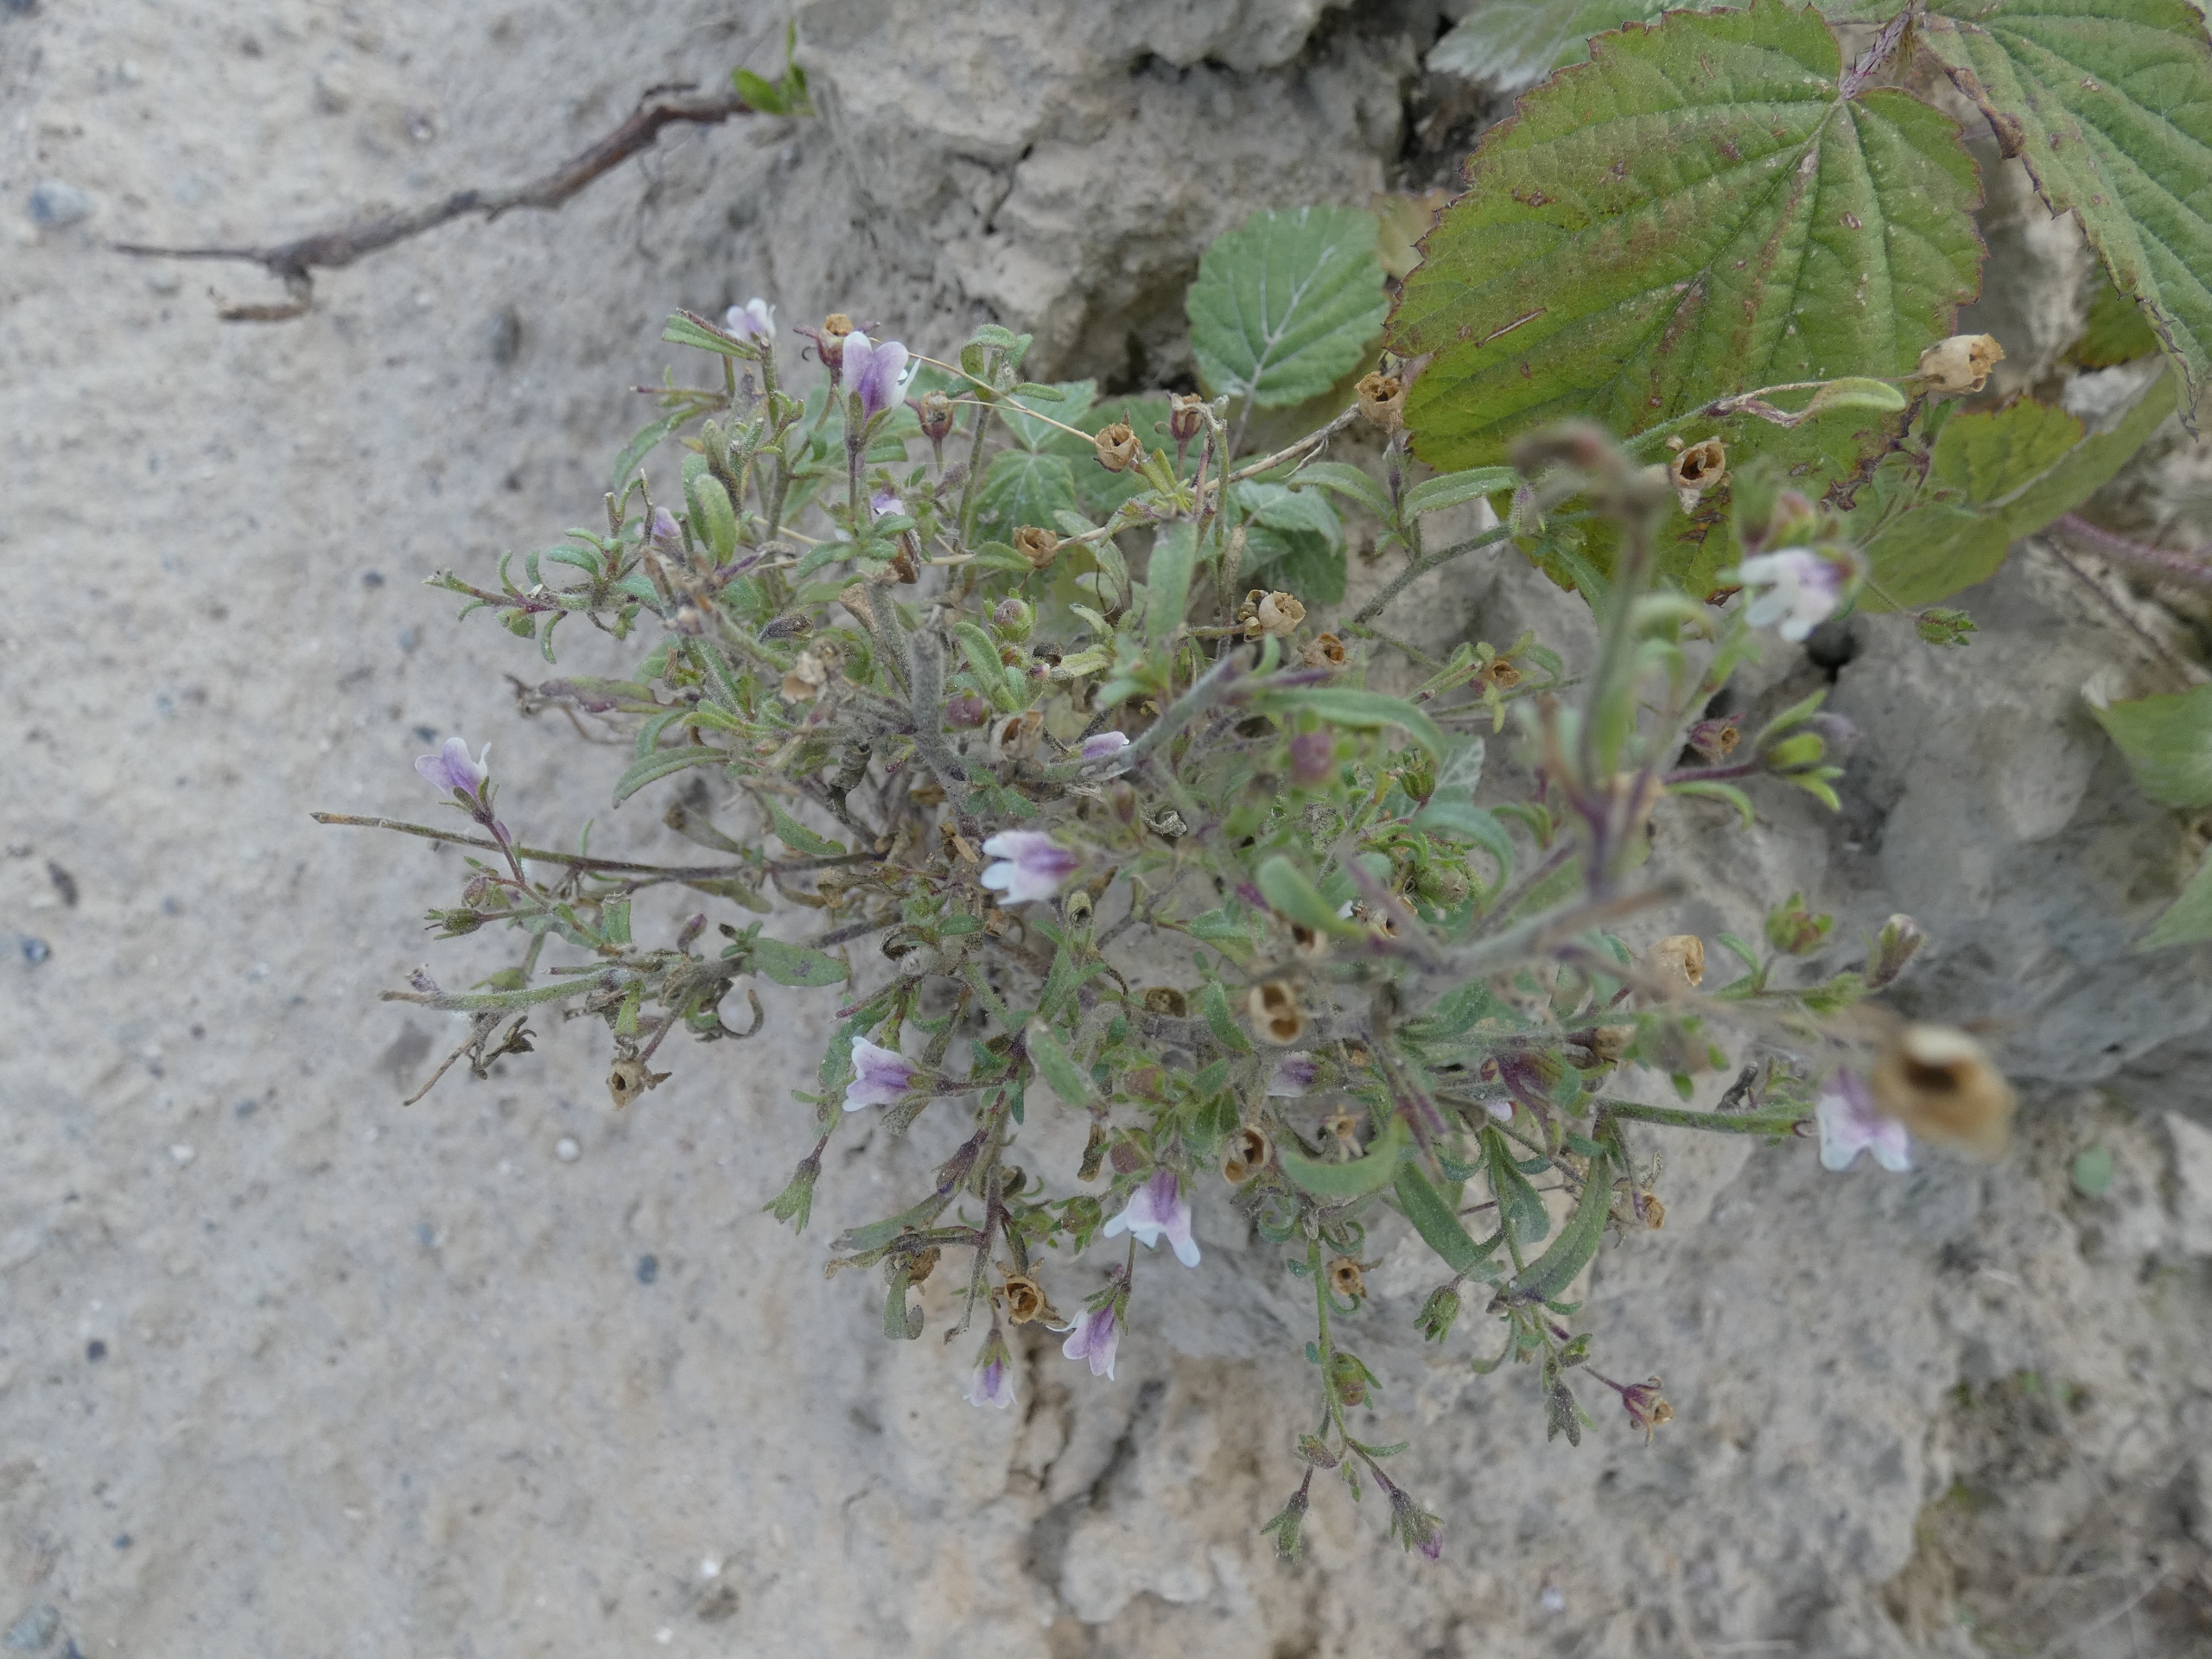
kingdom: Plantae
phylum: Tracheophyta
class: Magnoliopsida
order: Lamiales
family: Plantaginaceae
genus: Chaenorhinum
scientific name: Chaenorhinum minus
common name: Liden torskemund
